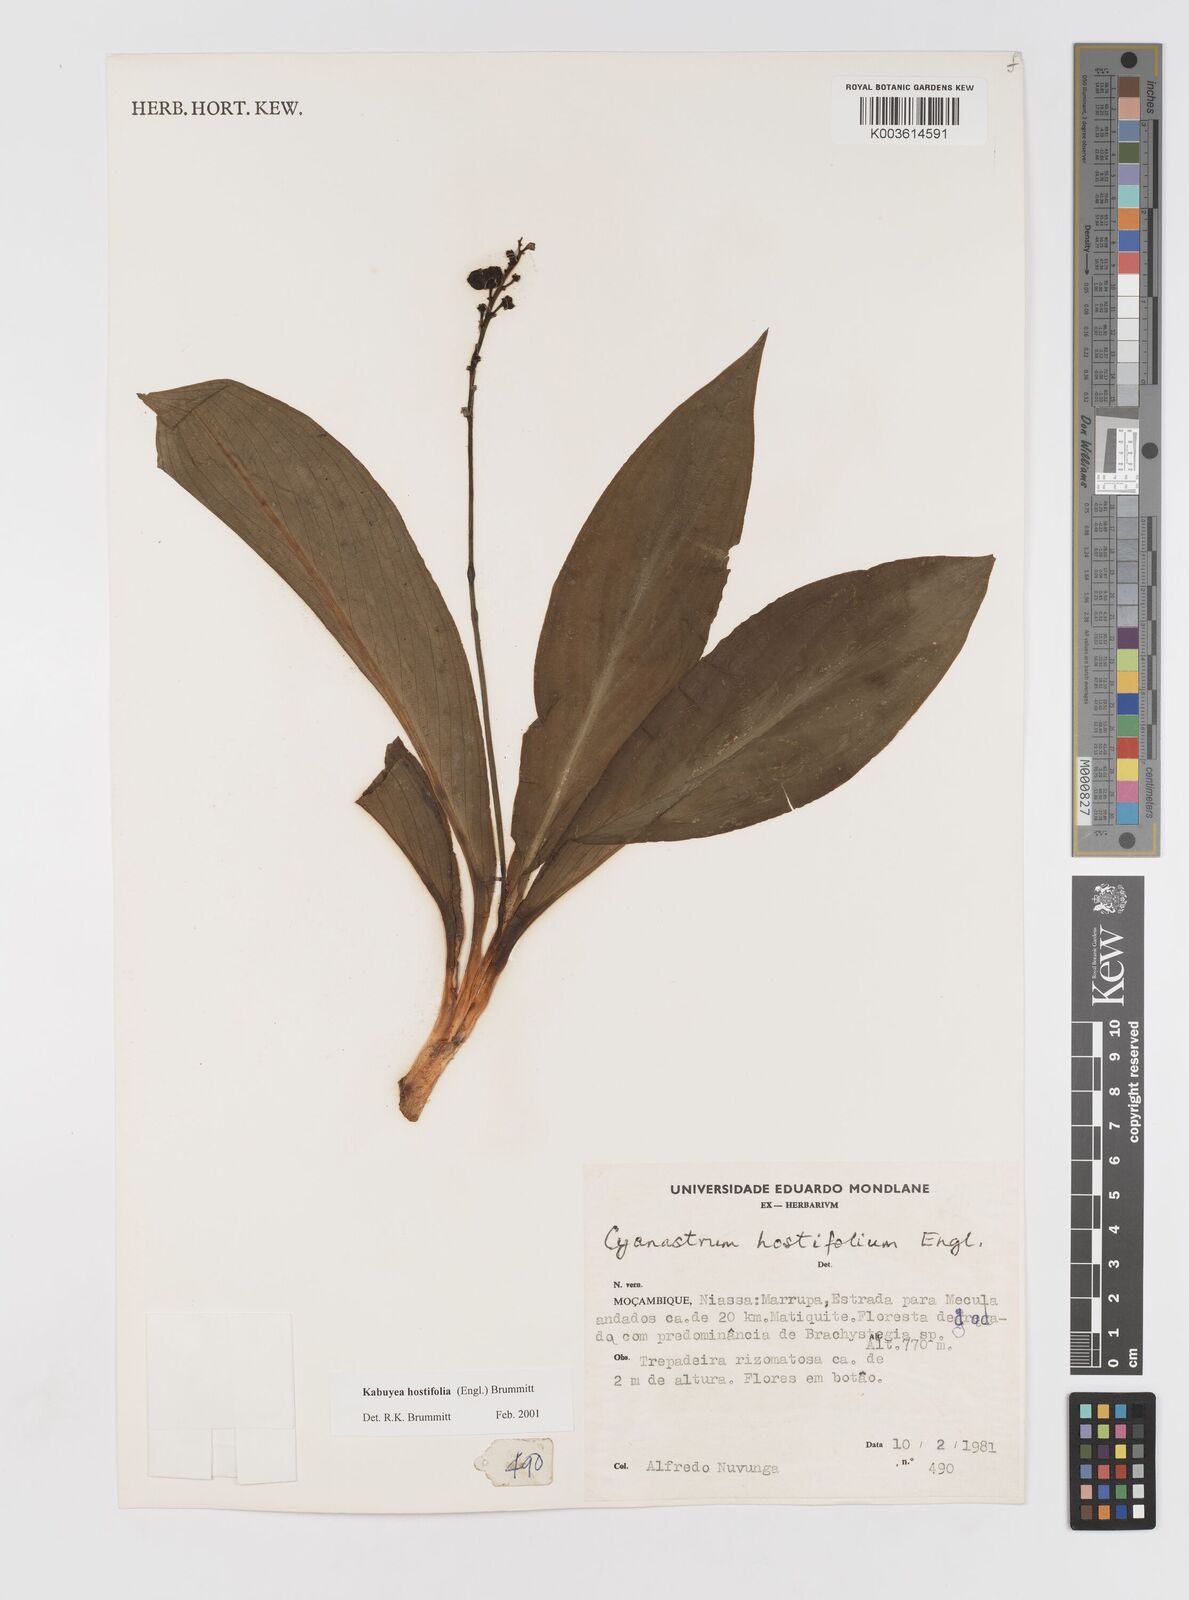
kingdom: Plantae
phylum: Tracheophyta
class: Liliopsida
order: Asparagales
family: Tecophilaeaceae
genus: Kabuyea
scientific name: Kabuyea hostifolia
